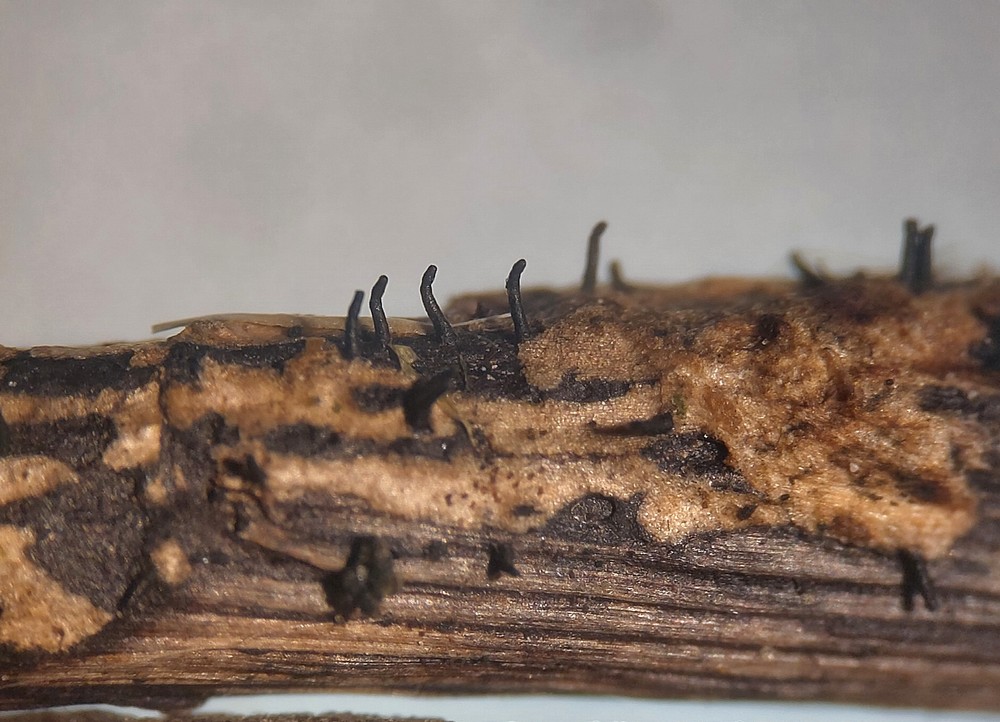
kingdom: Fungi
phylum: Ascomycota
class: Sordariomycetes
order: Diaporthales
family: Diaporthaceae
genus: Diaporthe
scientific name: Diaporthe pulla
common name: efeu-kulknippe
